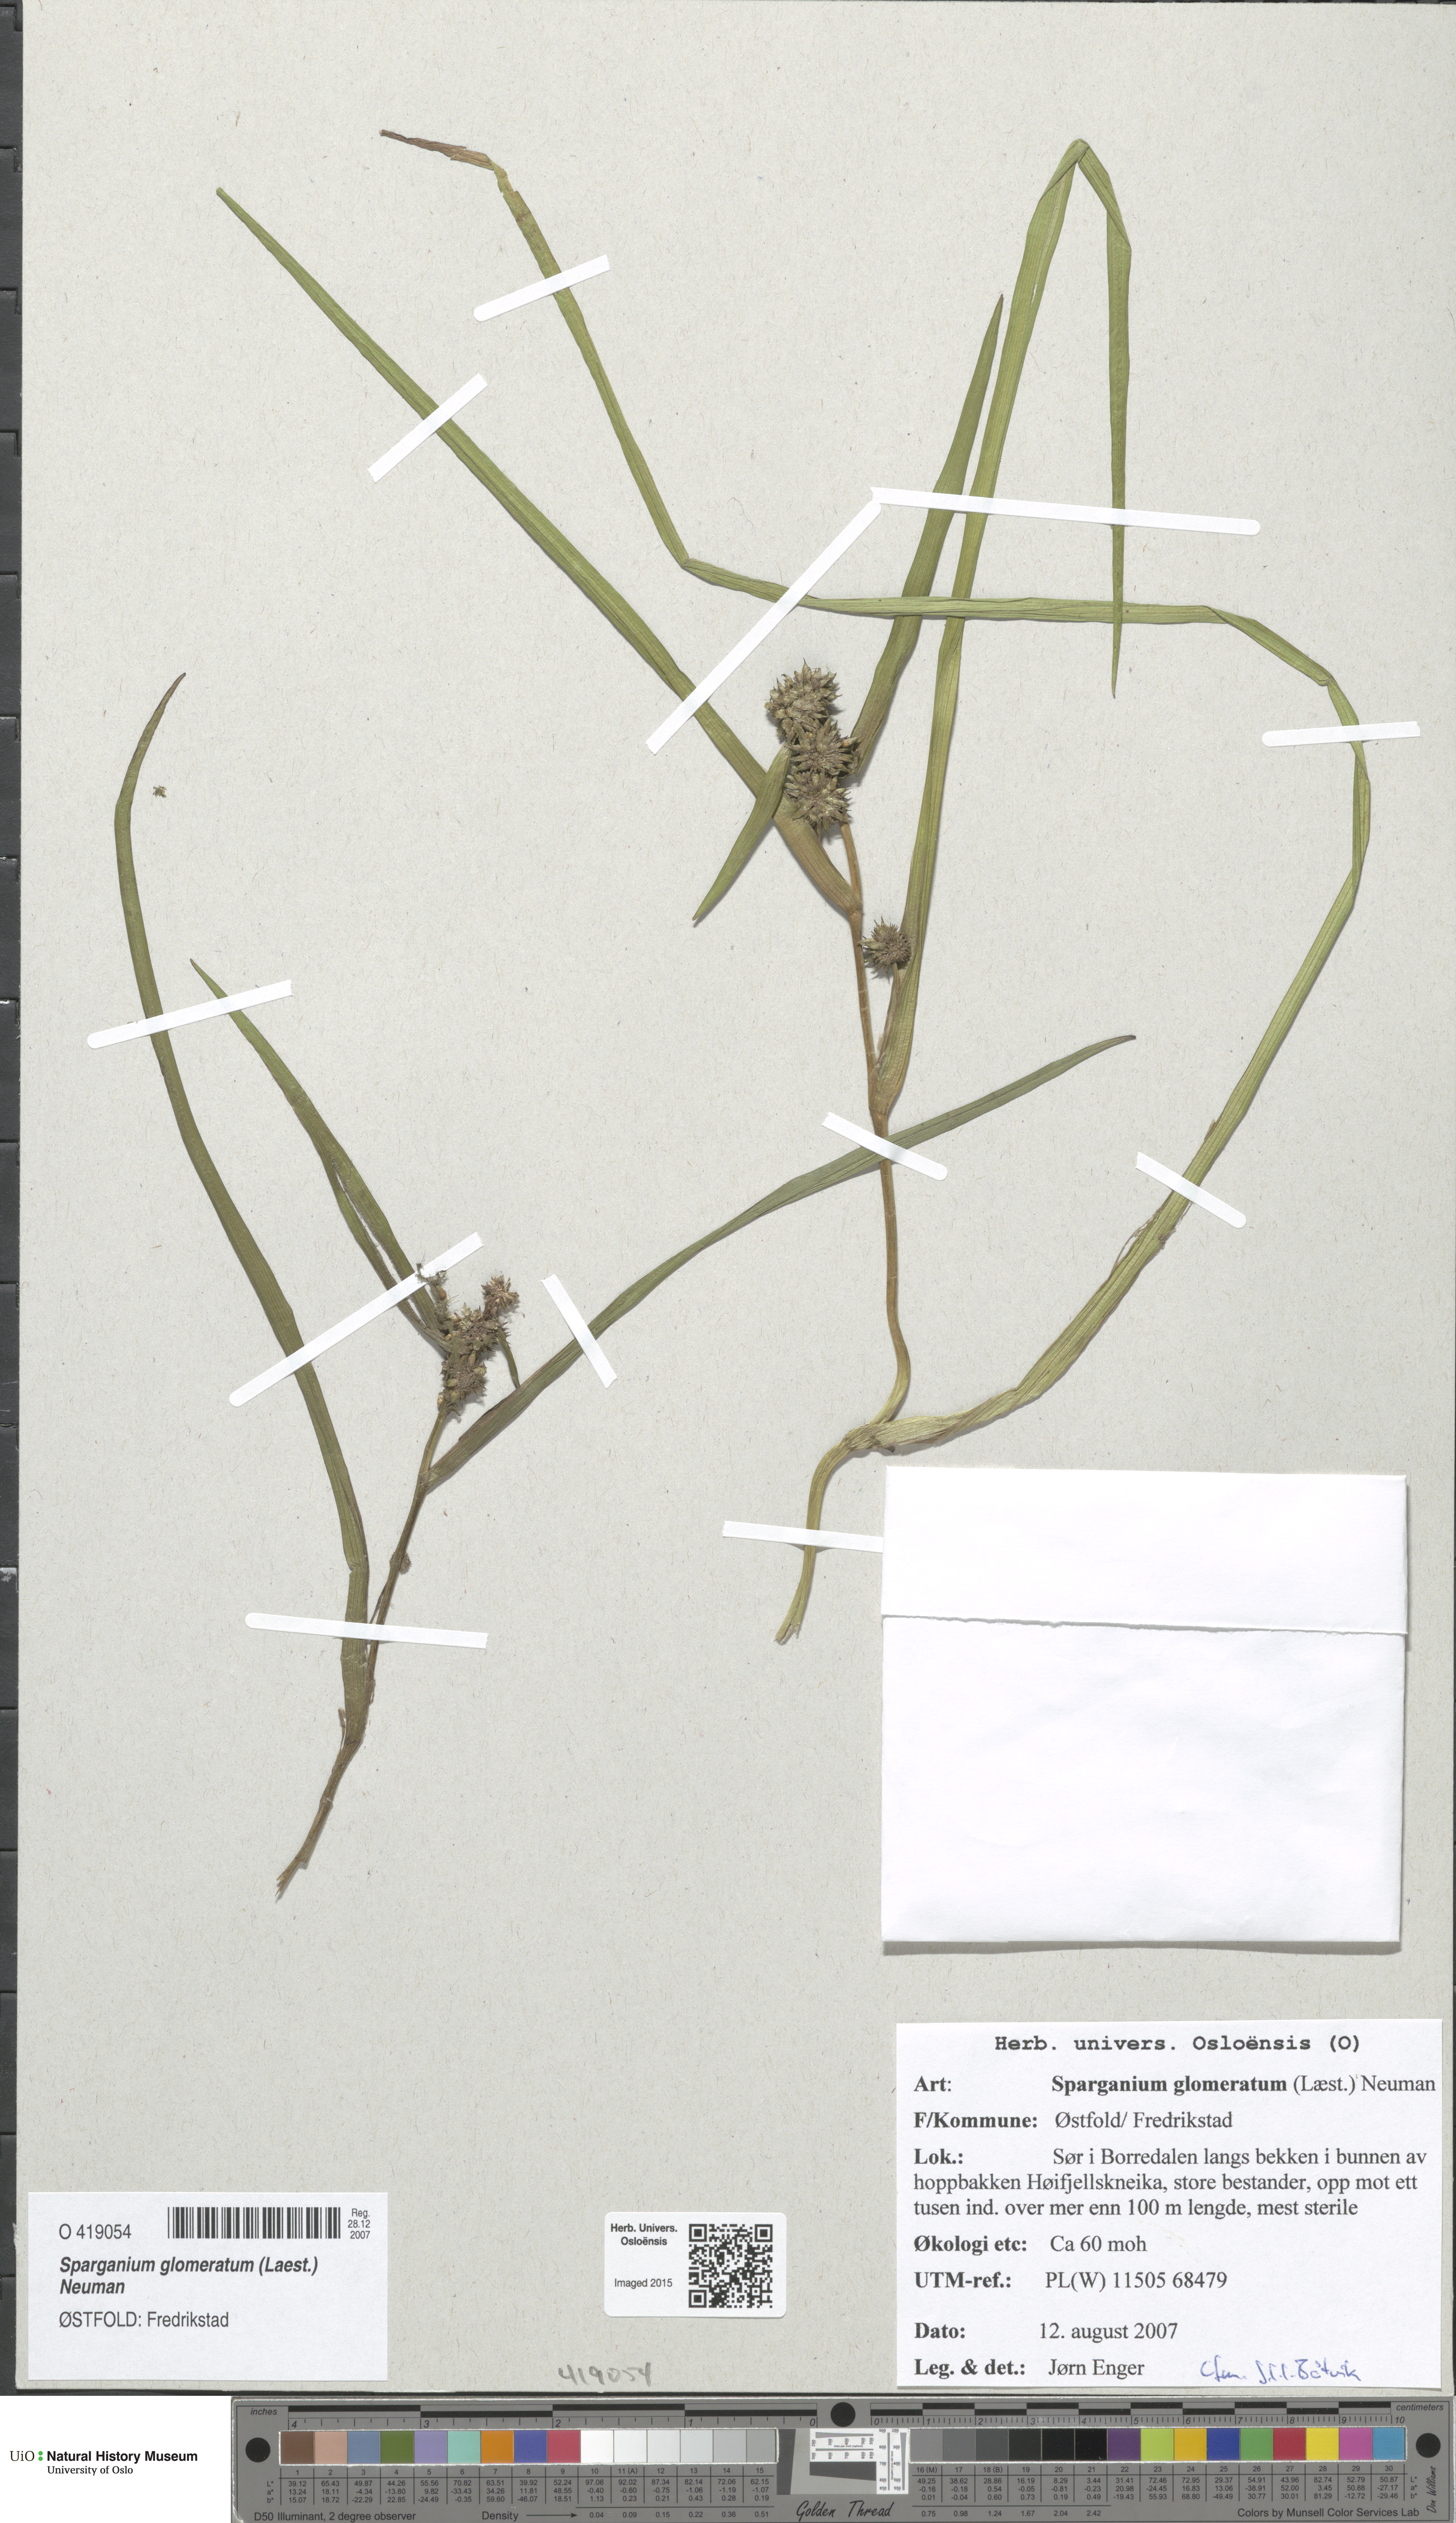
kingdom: Plantae
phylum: Tracheophyta
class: Liliopsida
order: Poales
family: Typhaceae
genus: Sparganium
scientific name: Sparganium glomeratum
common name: Clustered burreed
